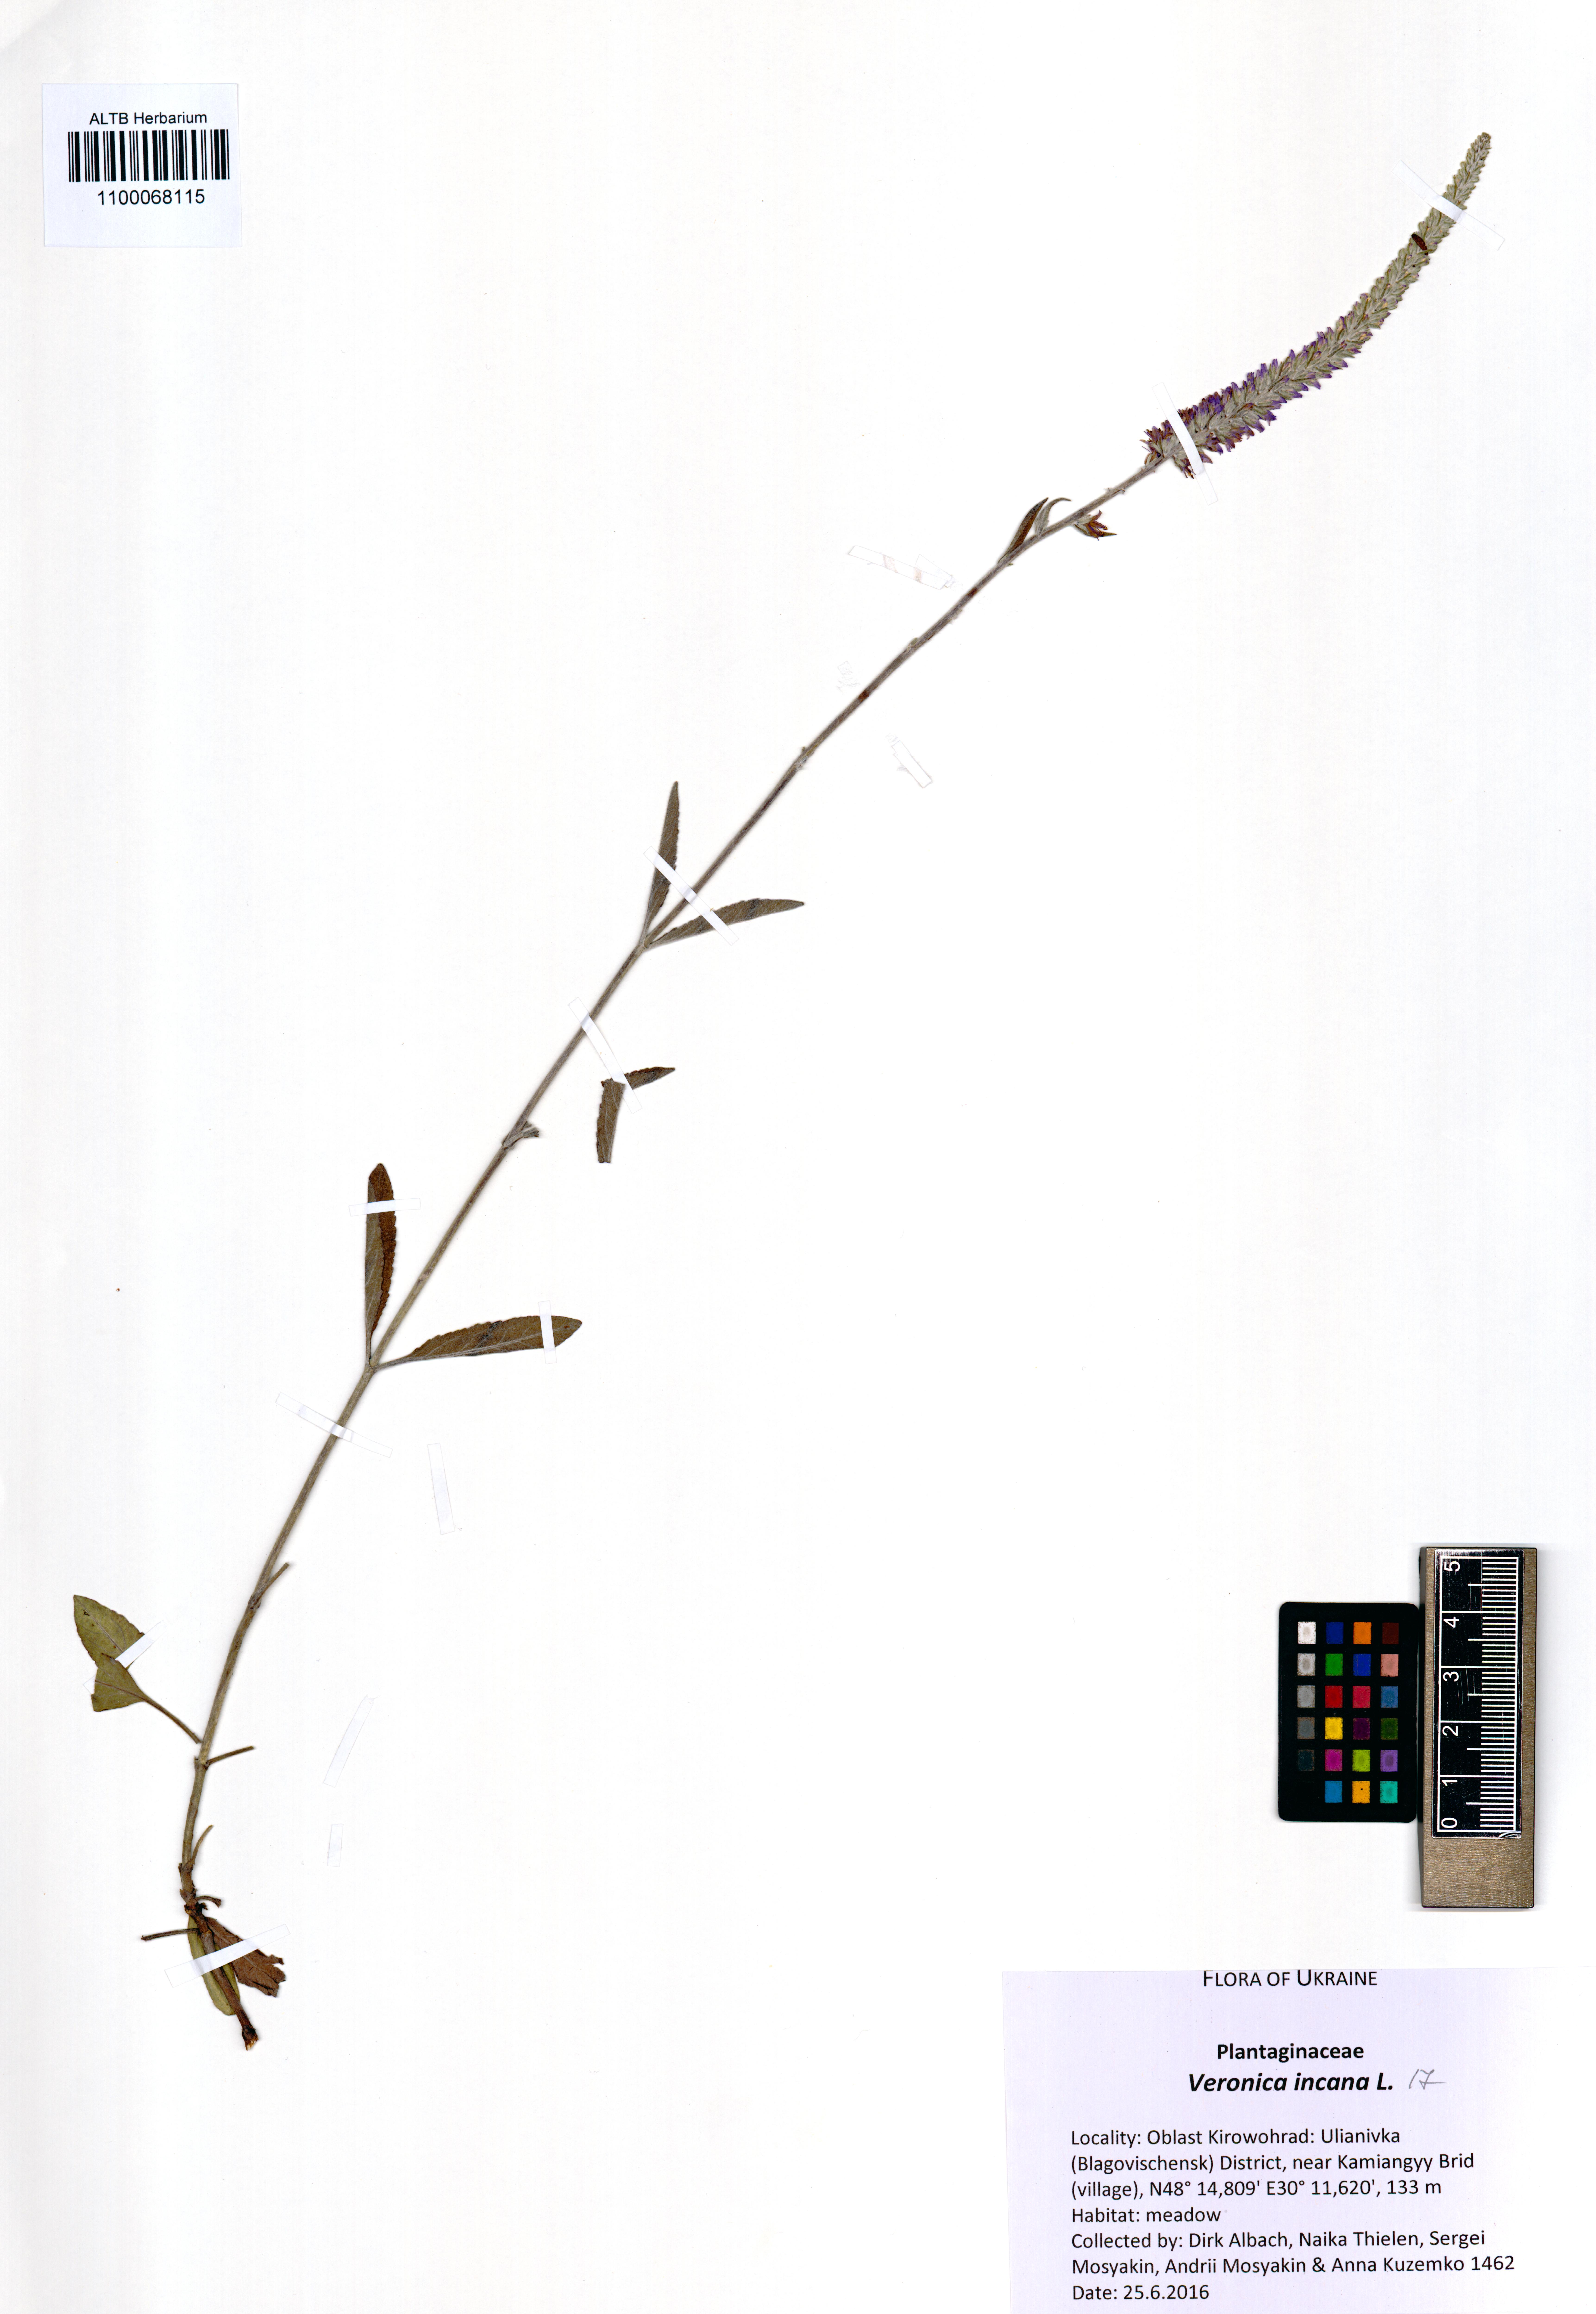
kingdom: Plantae
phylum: Tracheophyta
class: Magnoliopsida
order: Lamiales
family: Plantaginaceae
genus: Veronica
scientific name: Veronica incana
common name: Silver speedwell
